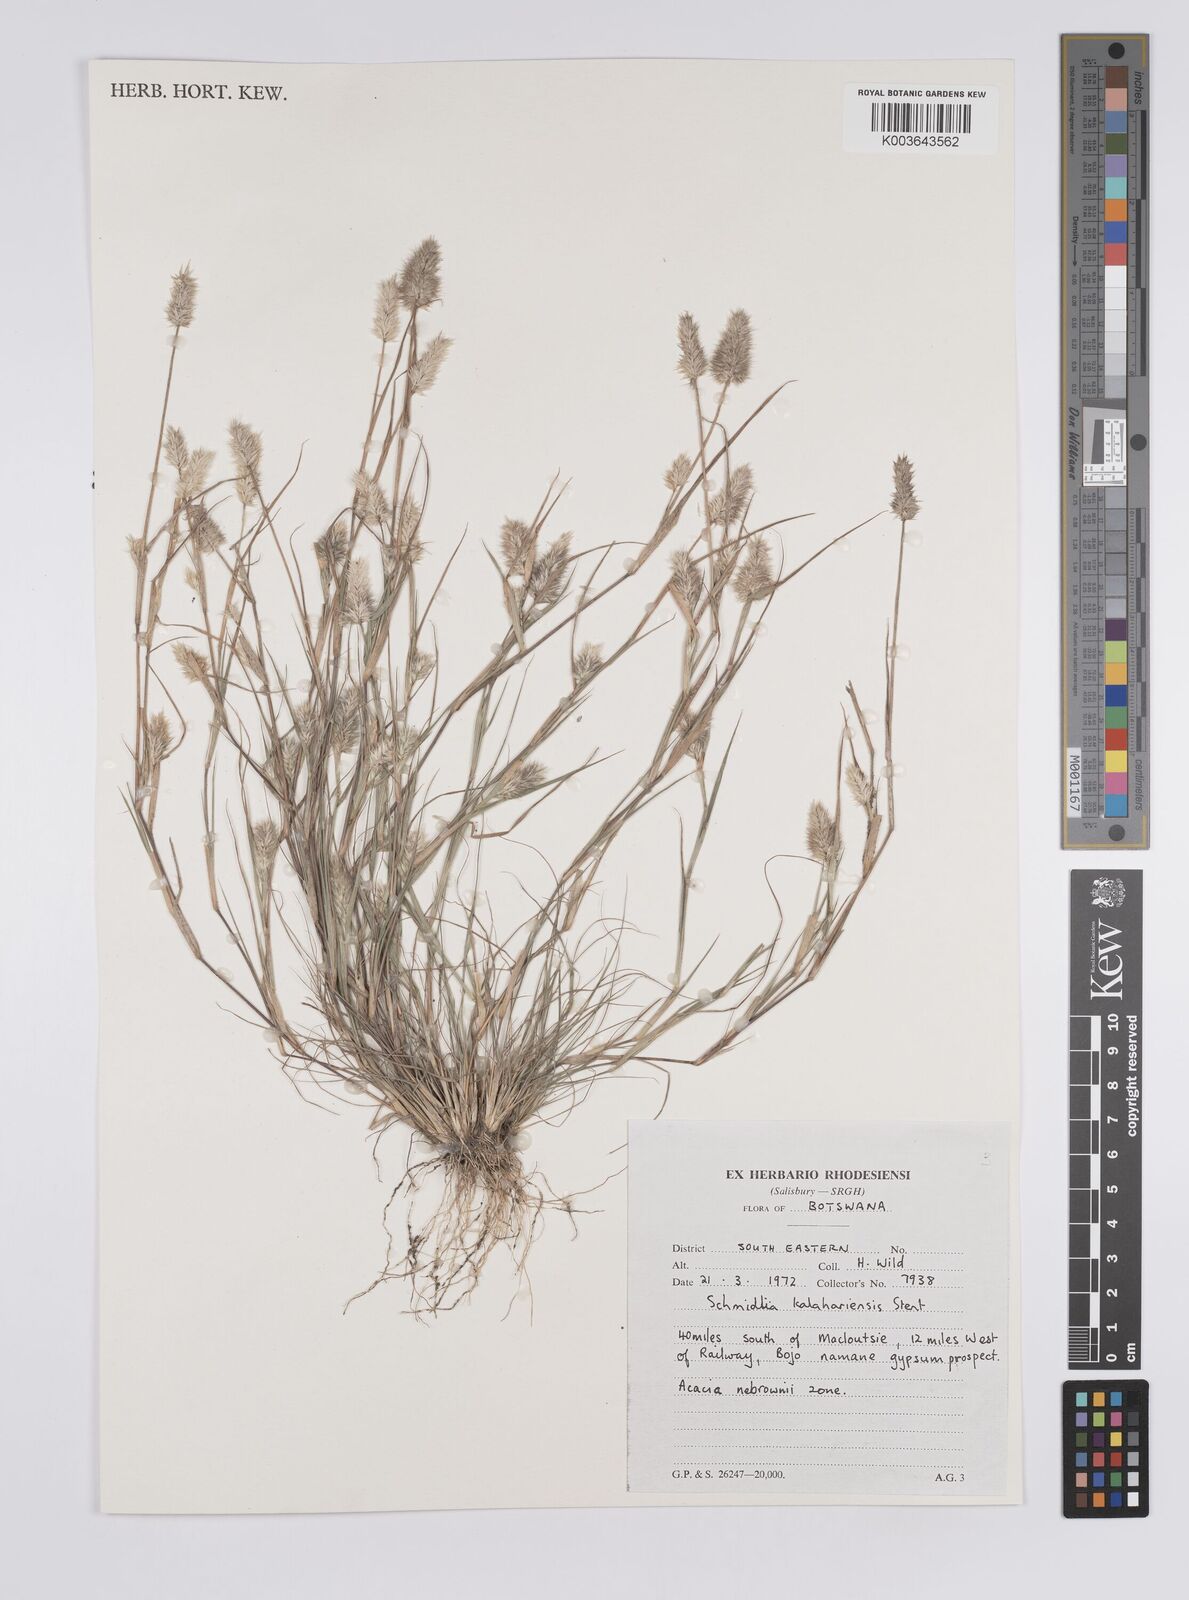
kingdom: Plantae
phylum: Tracheophyta
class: Liliopsida
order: Poales
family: Poaceae
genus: Enneapogon
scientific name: Enneapogon desvauxii
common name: Feather pappus grass
